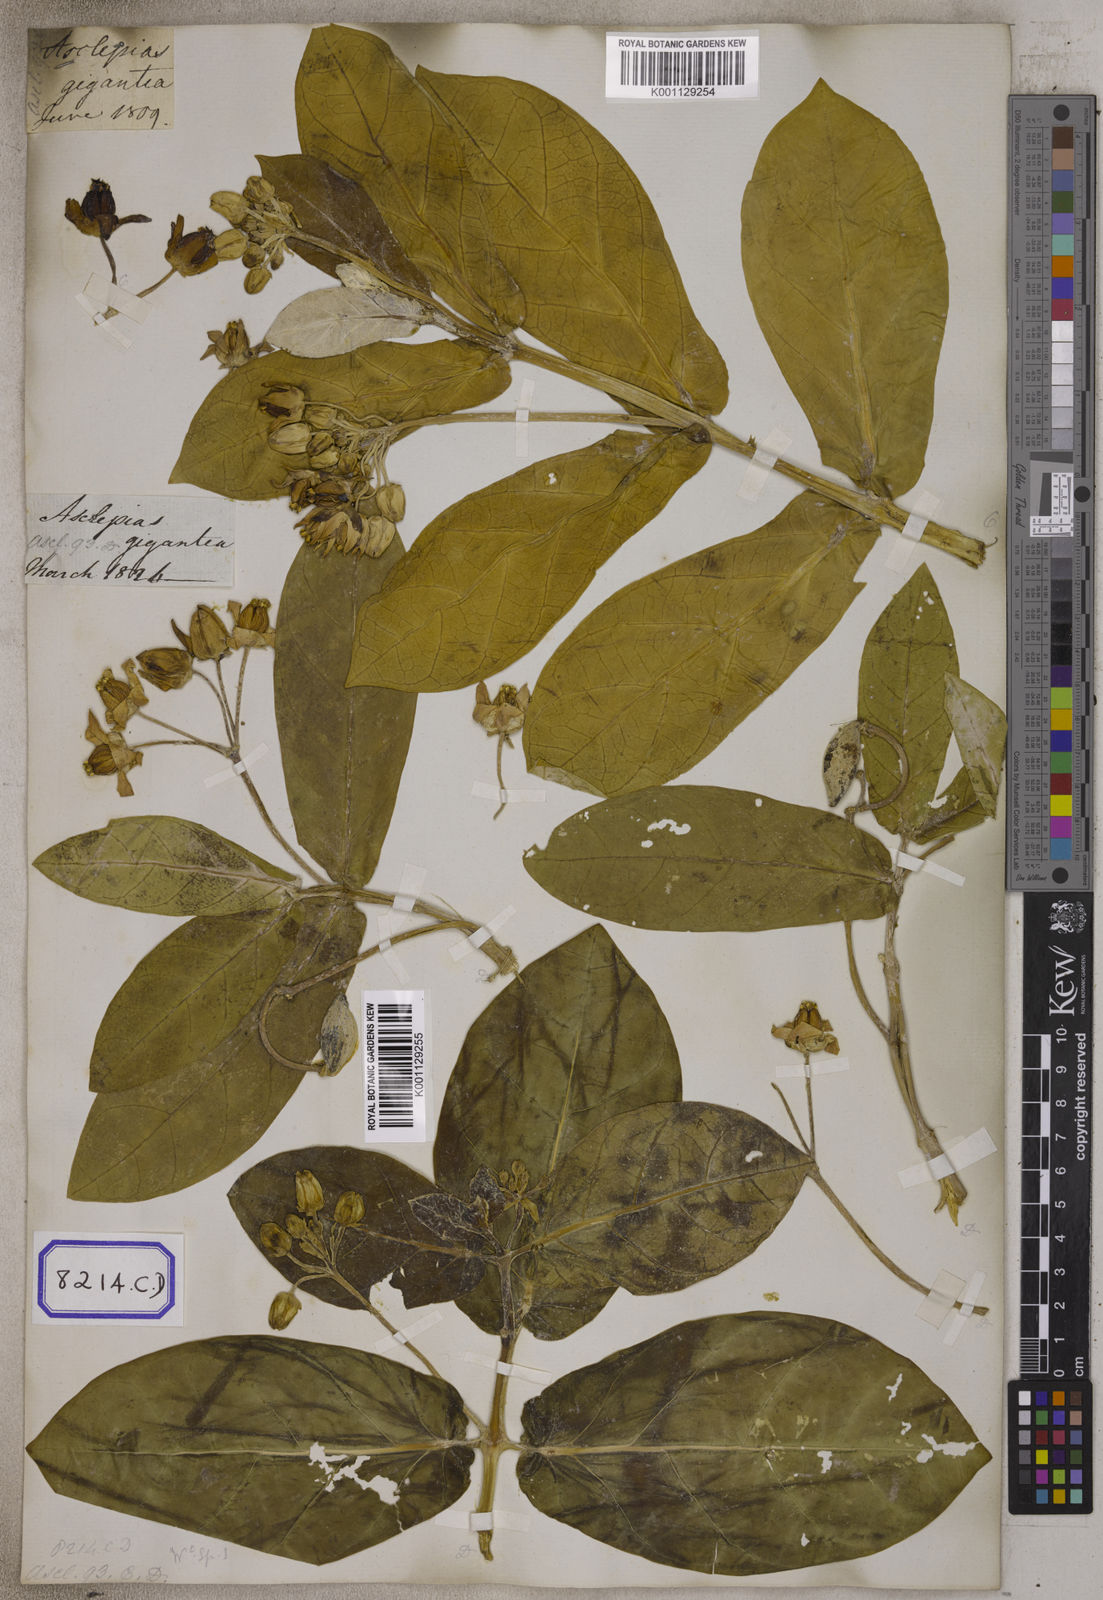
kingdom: Plantae
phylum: Tracheophyta
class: Magnoliopsida
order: Gentianales
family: Apocynaceae
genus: Calotropis
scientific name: Calotropis gigantea
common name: Crown flower
